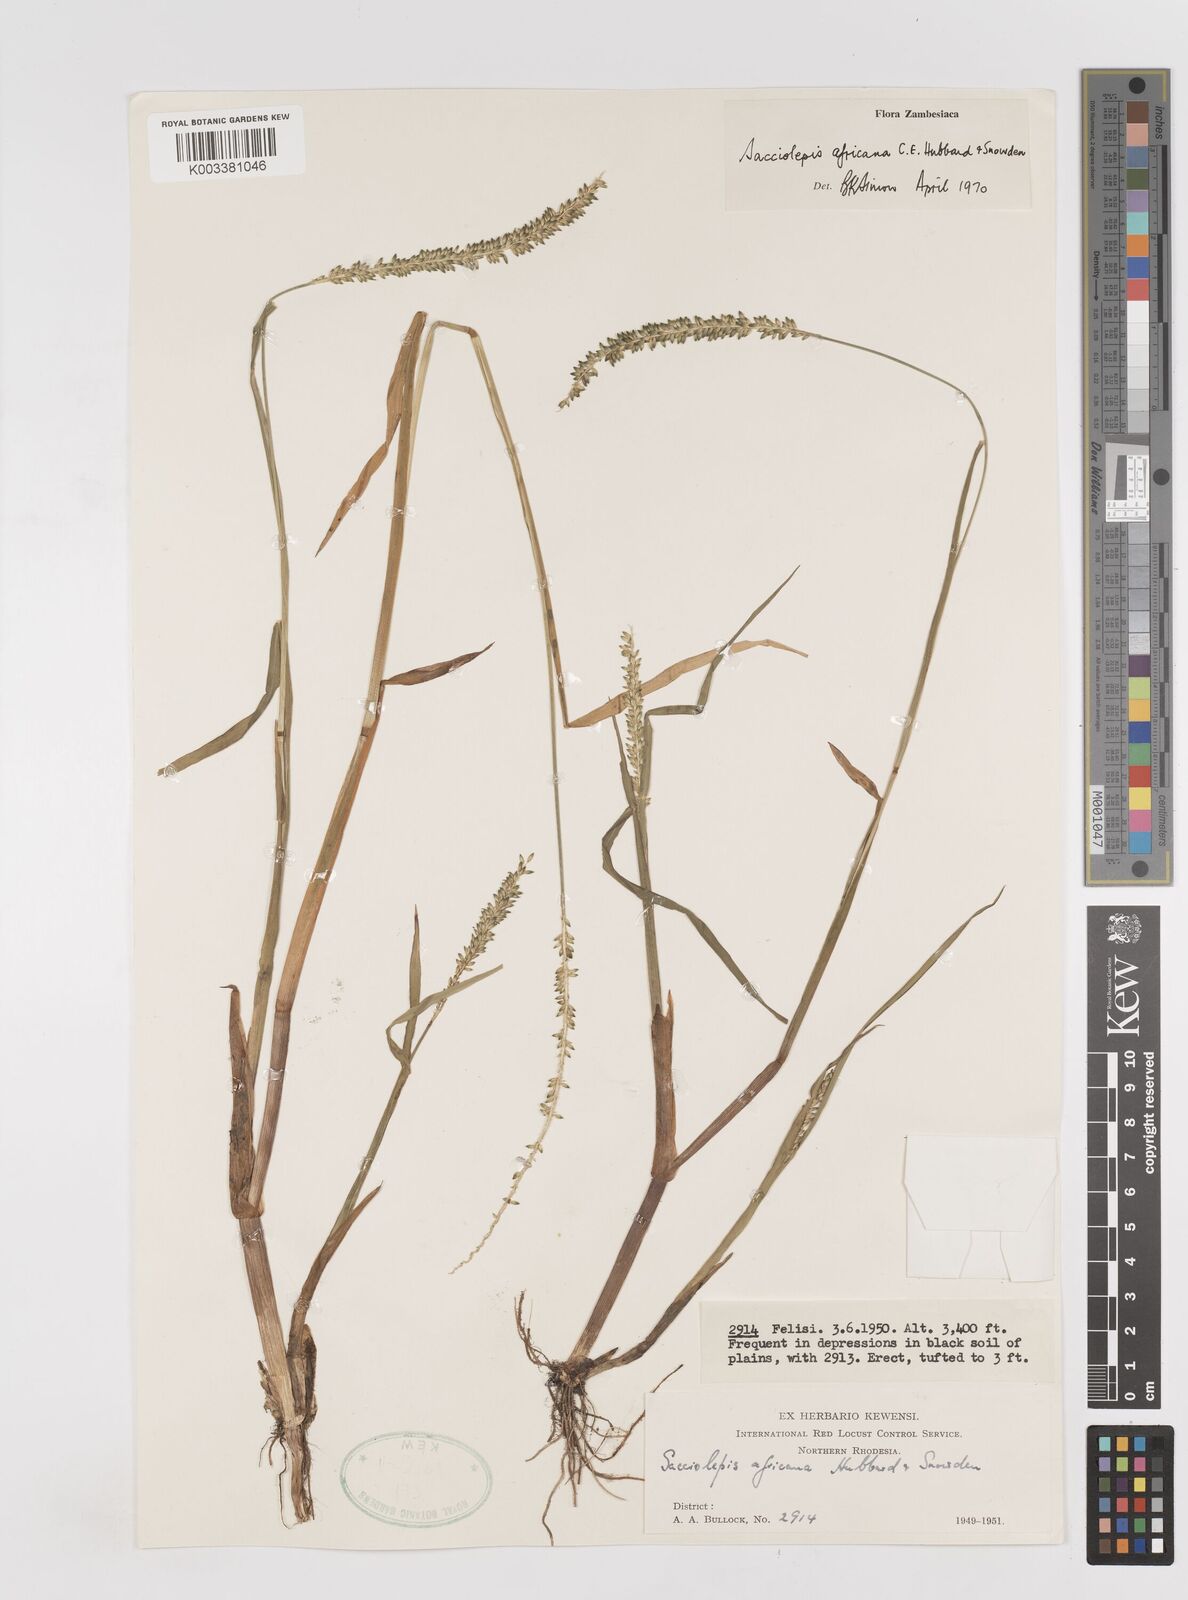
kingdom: Plantae
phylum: Tracheophyta
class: Liliopsida
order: Poales
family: Poaceae
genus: Sacciolepis
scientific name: Sacciolepis africana
